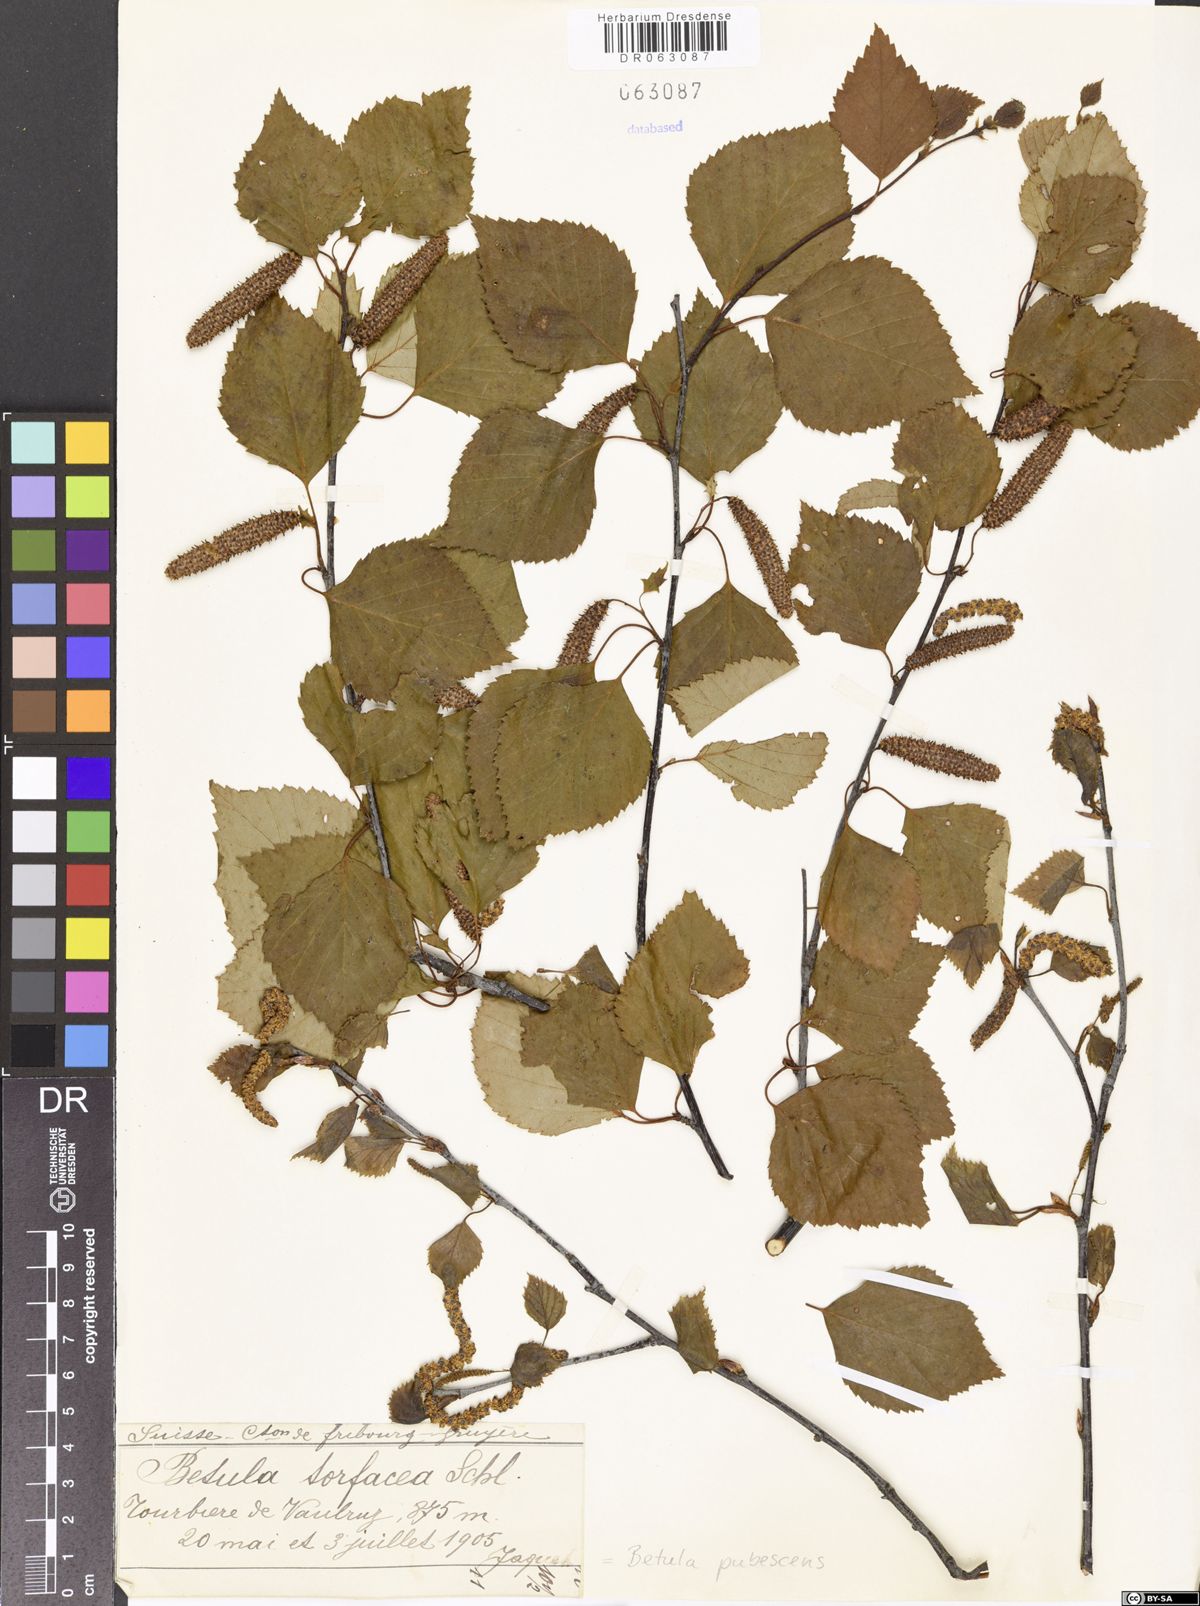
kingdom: Plantae
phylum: Tracheophyta
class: Magnoliopsida
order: Fagales
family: Betulaceae
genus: Betula
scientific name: Betula pubescens
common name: Downy birch
